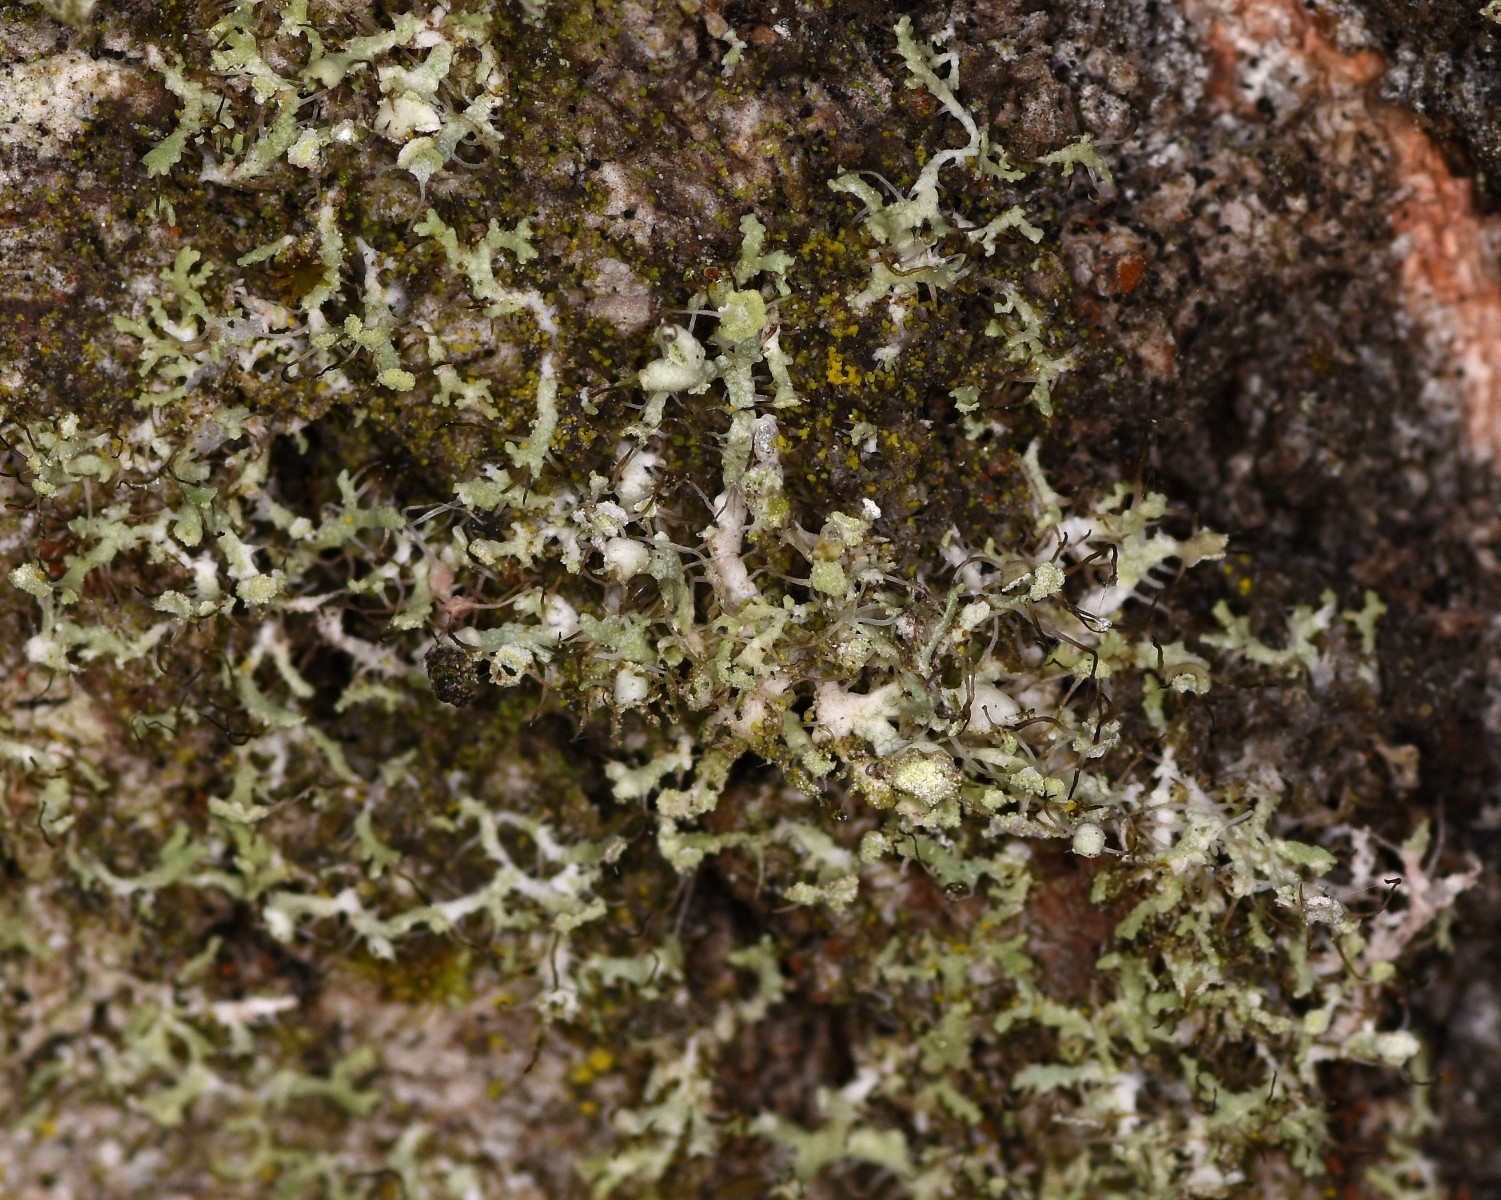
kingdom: Fungi
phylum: Ascomycota
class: Lecanoromycetes
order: Caliciales
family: Physciaceae
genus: Physcia
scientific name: Physcia tenella
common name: spæd rosetlav
